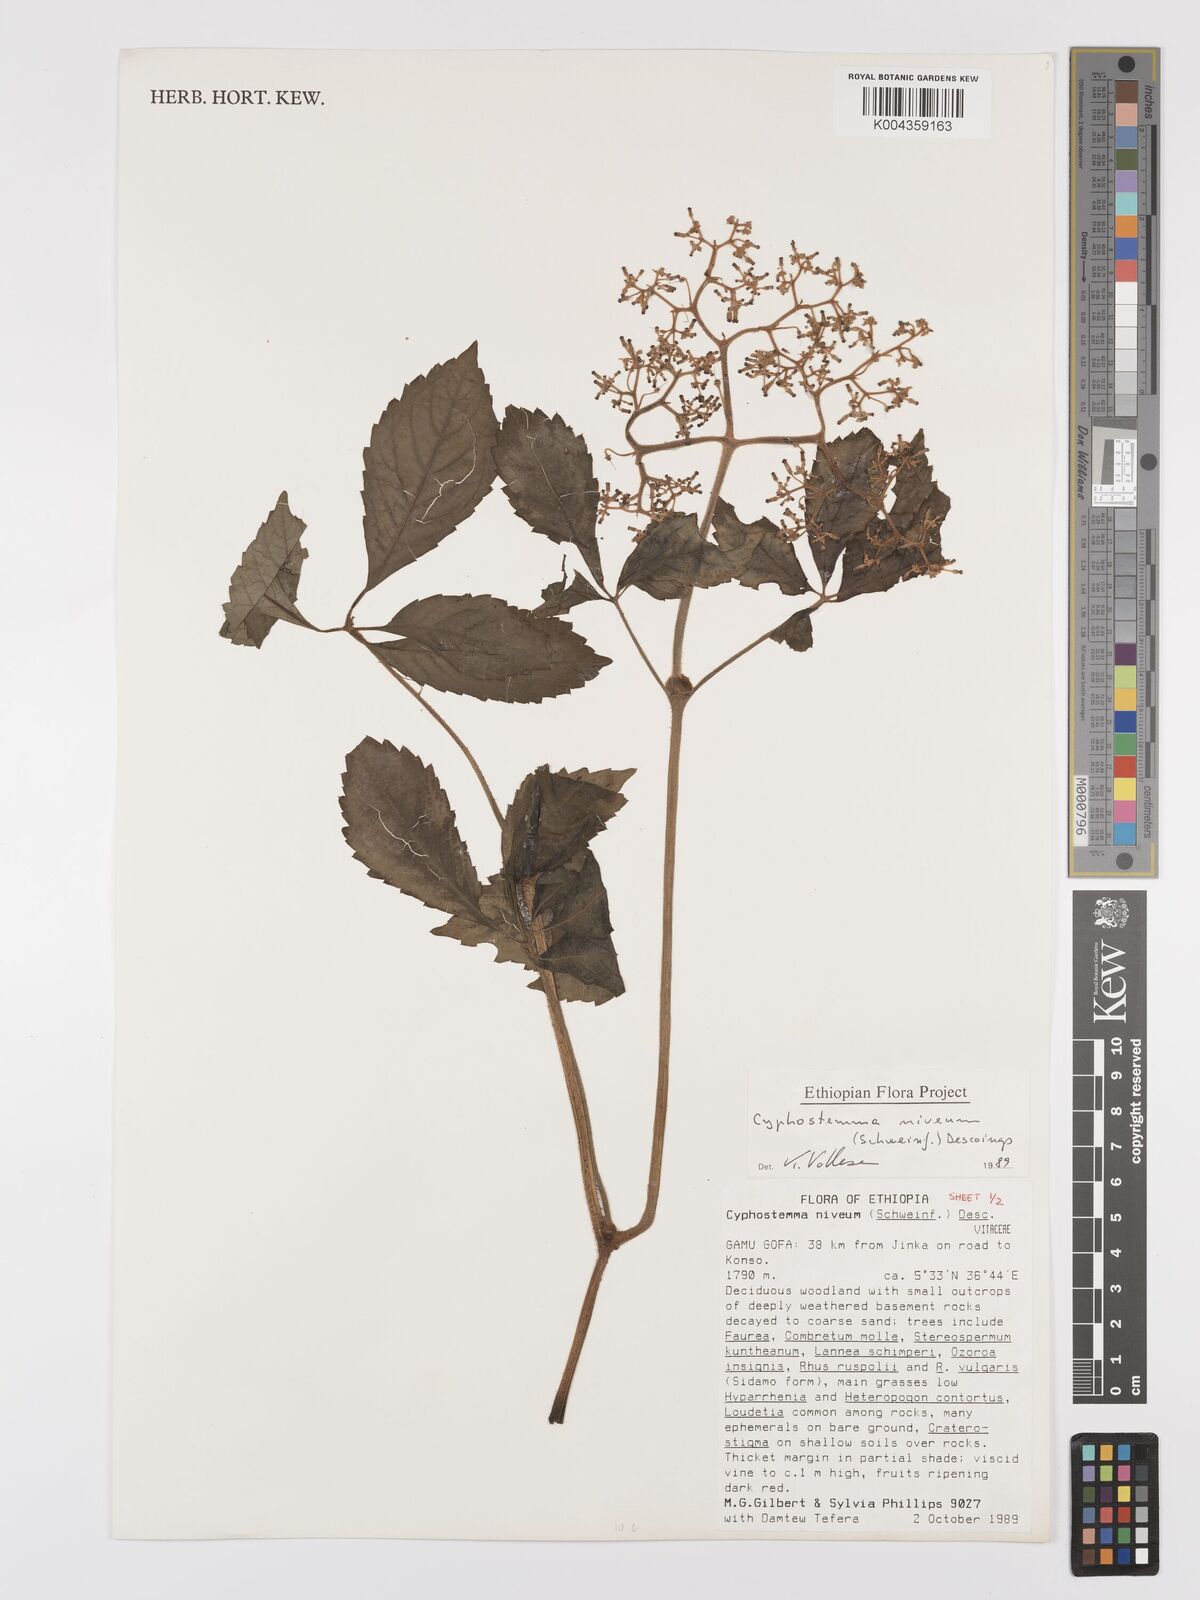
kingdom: Plantae
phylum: Tracheophyta
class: Magnoliopsida
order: Vitales
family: Vitaceae
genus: Cyphostemma
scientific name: Cyphostemma rivae
